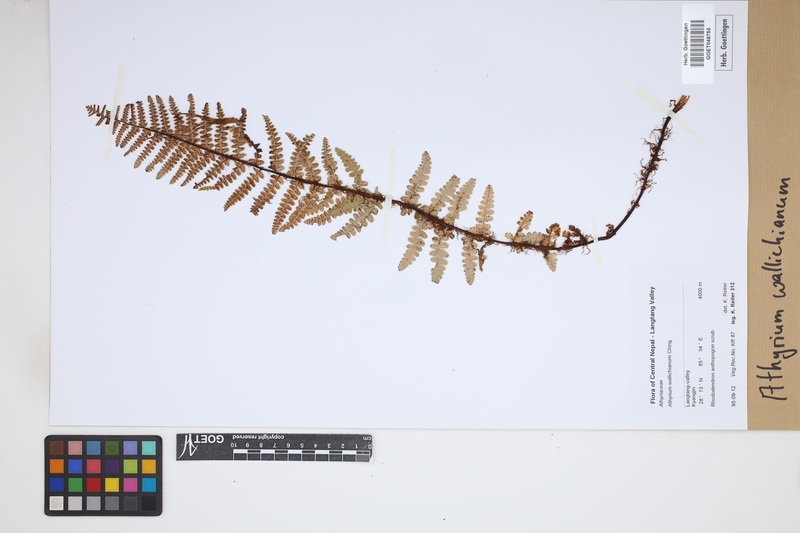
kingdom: Plantae
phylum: Tracheophyta
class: Polypodiopsida
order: Polypodiales
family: Athyriaceae
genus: Athyrium
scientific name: Athyrium wallichianum
